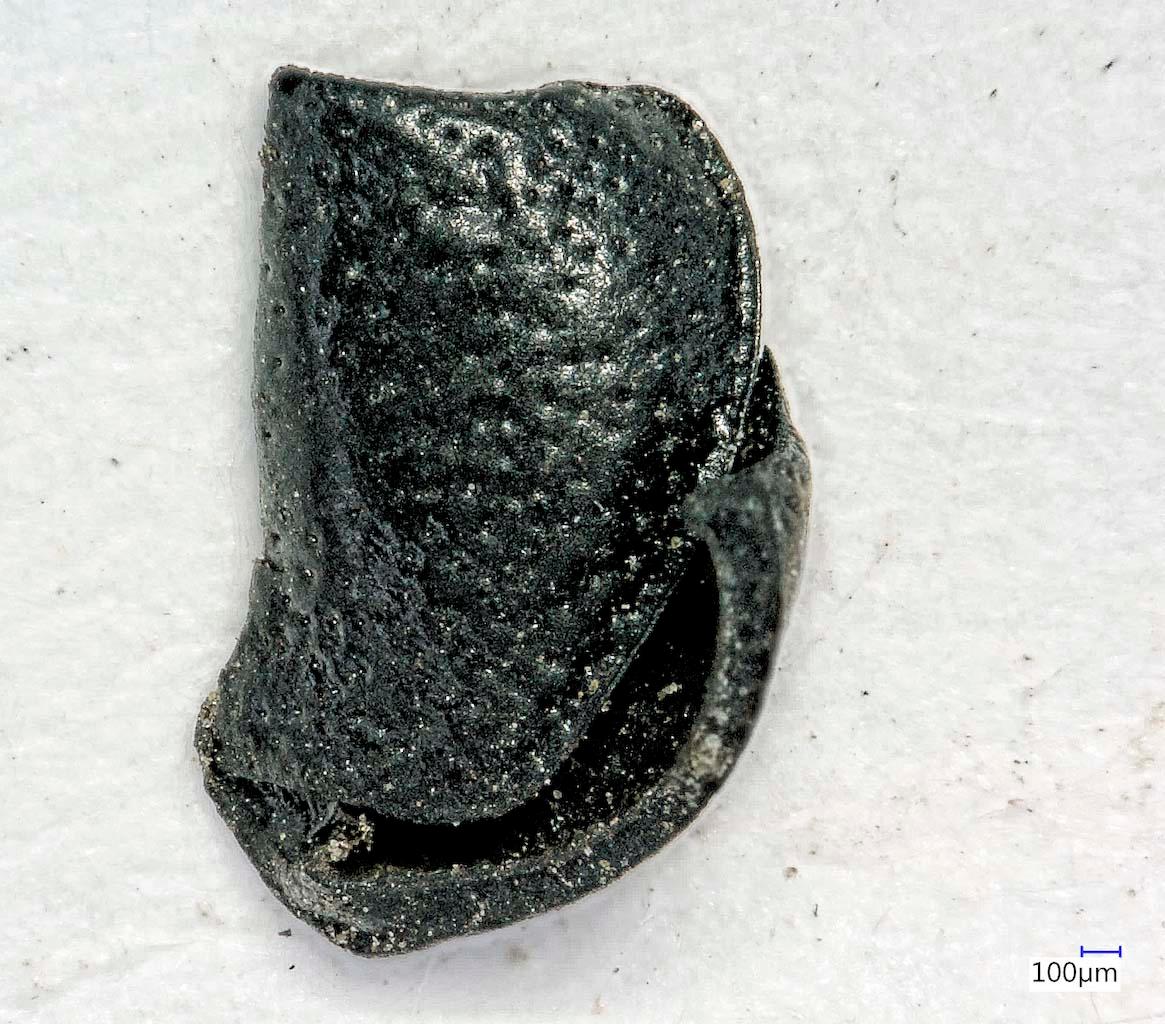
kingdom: Animalia
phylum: Arthropoda
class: Insecta
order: Coleoptera
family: Carabidae
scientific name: Carabidae
